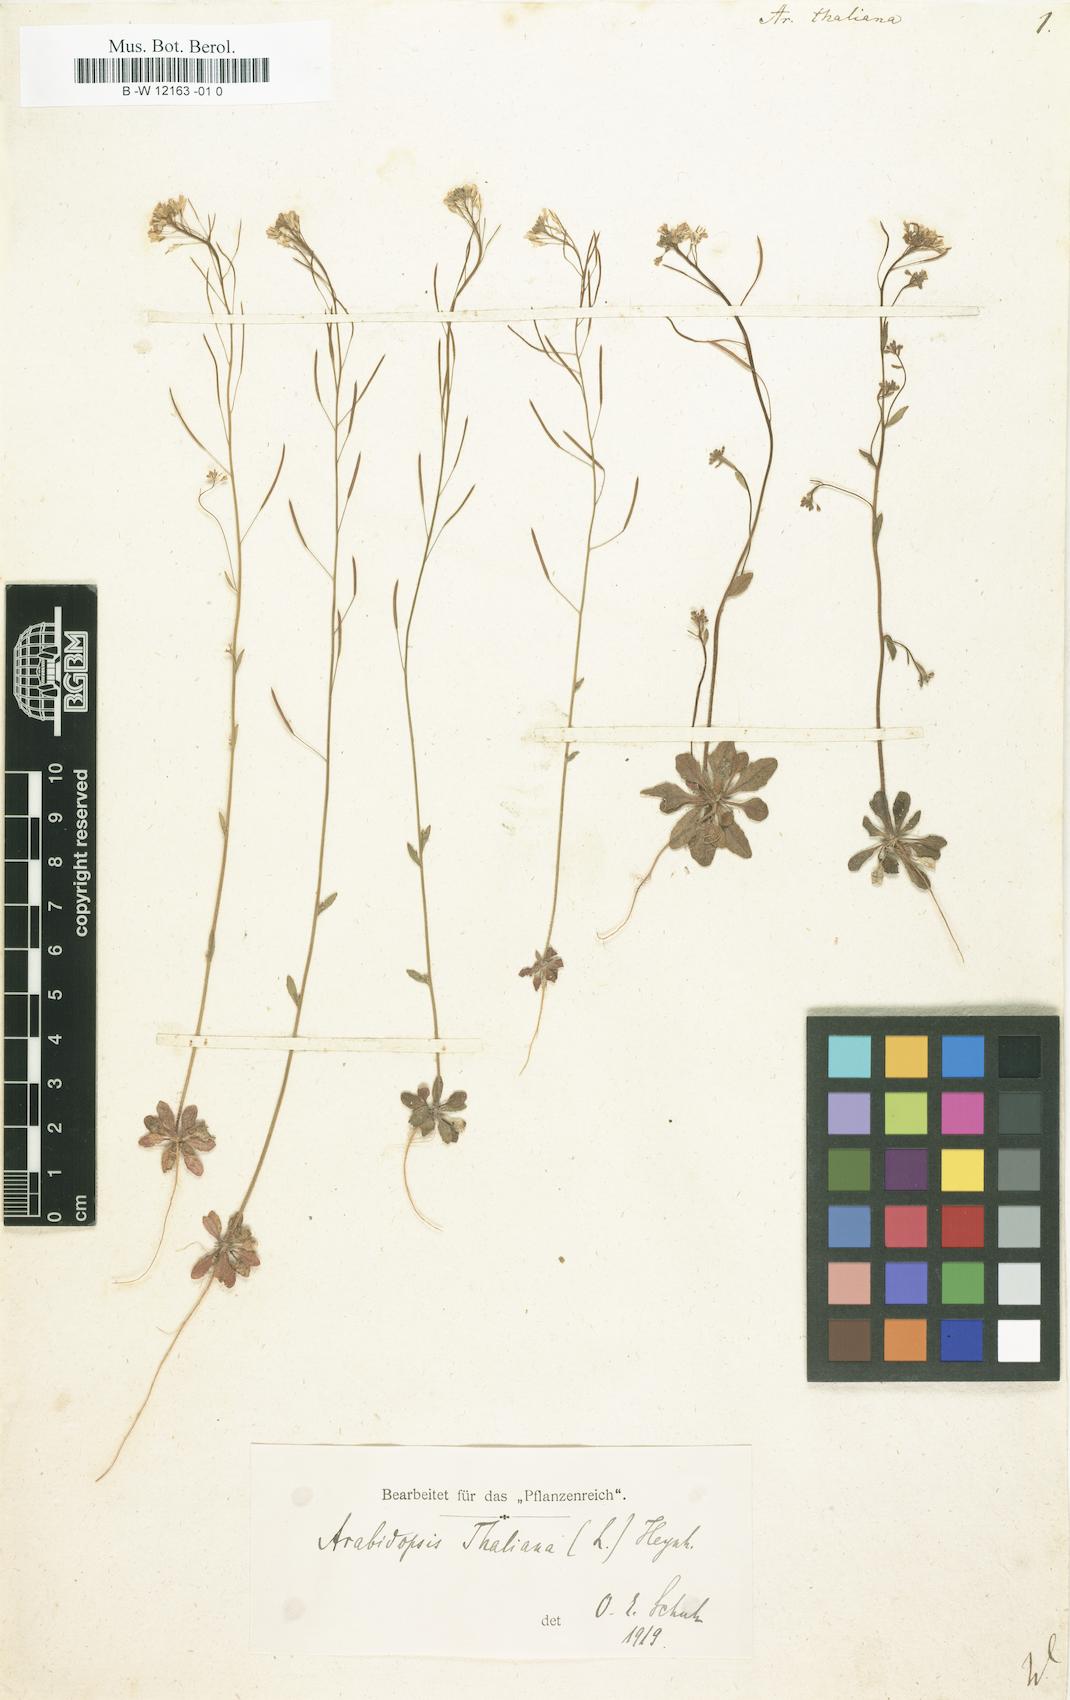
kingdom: Plantae
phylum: Tracheophyta
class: Magnoliopsida
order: Brassicales
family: Brassicaceae
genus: Arabidopsis
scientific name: Arabidopsis
